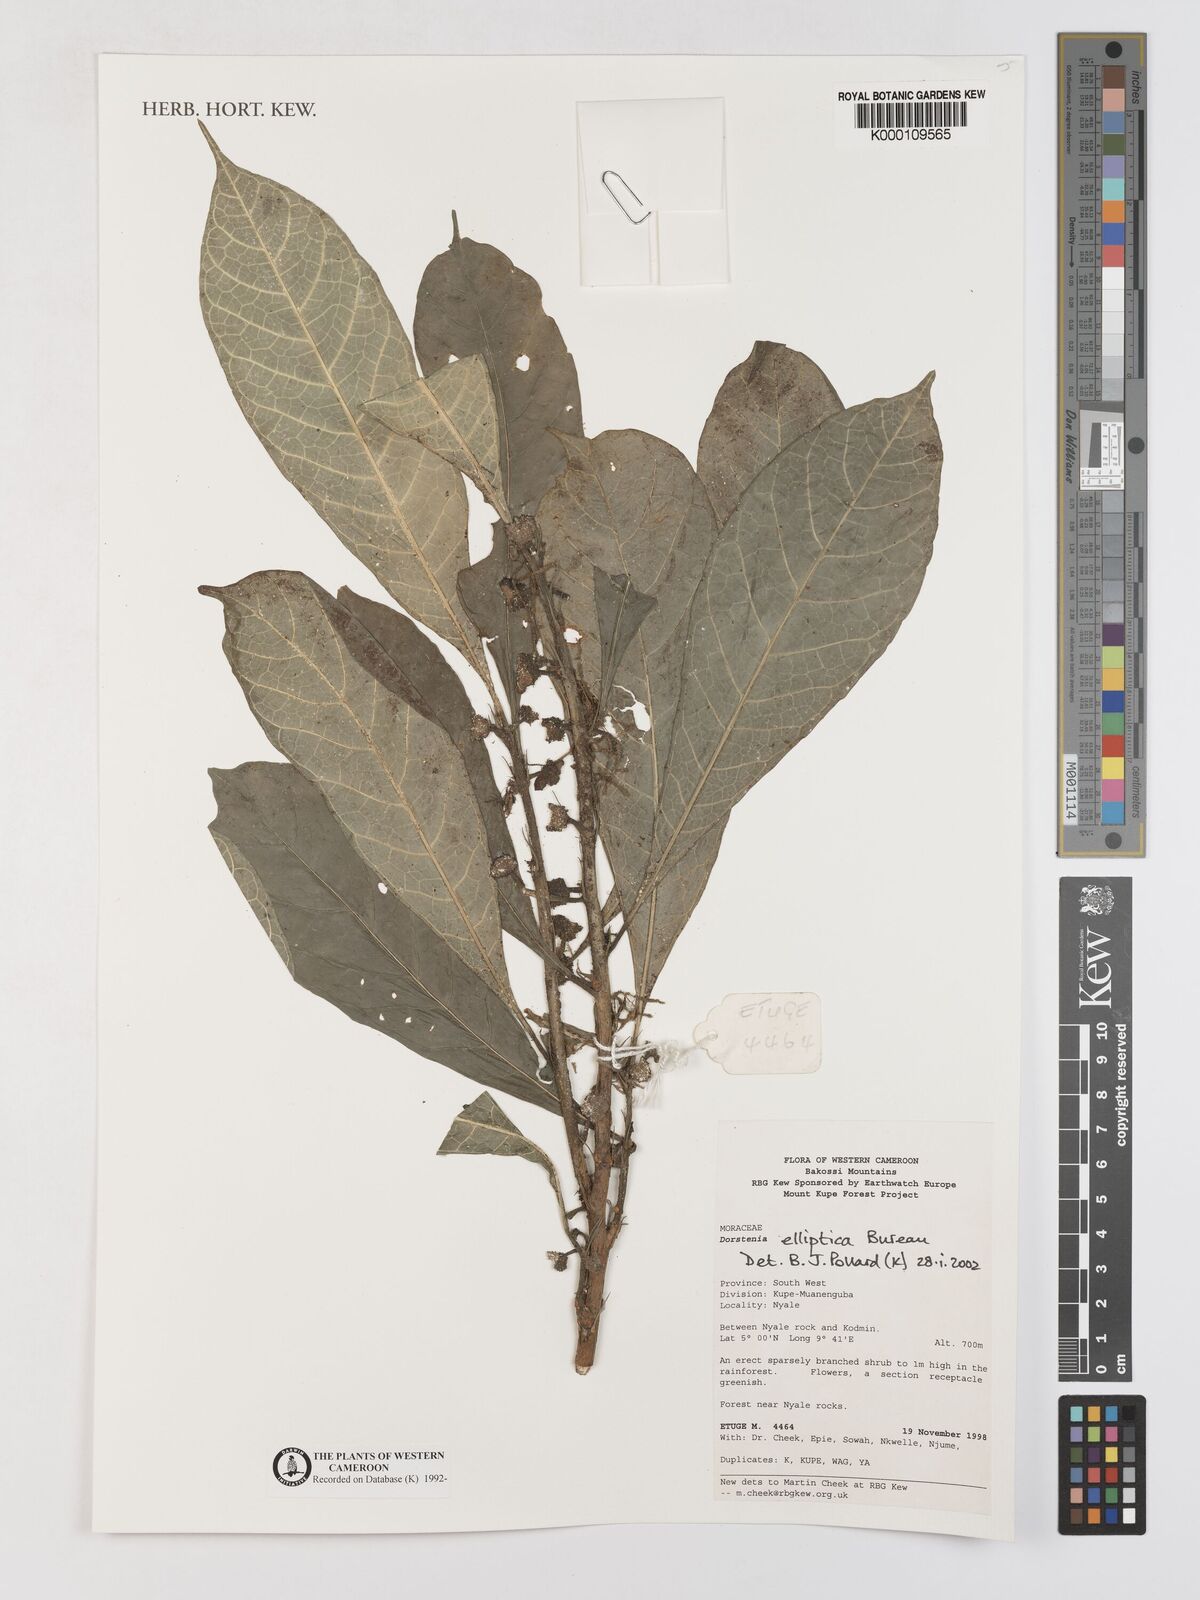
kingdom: Plantae
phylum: Tracheophyta
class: Magnoliopsida
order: Rosales
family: Moraceae
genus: Dorstenia
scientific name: Dorstenia elliptica
